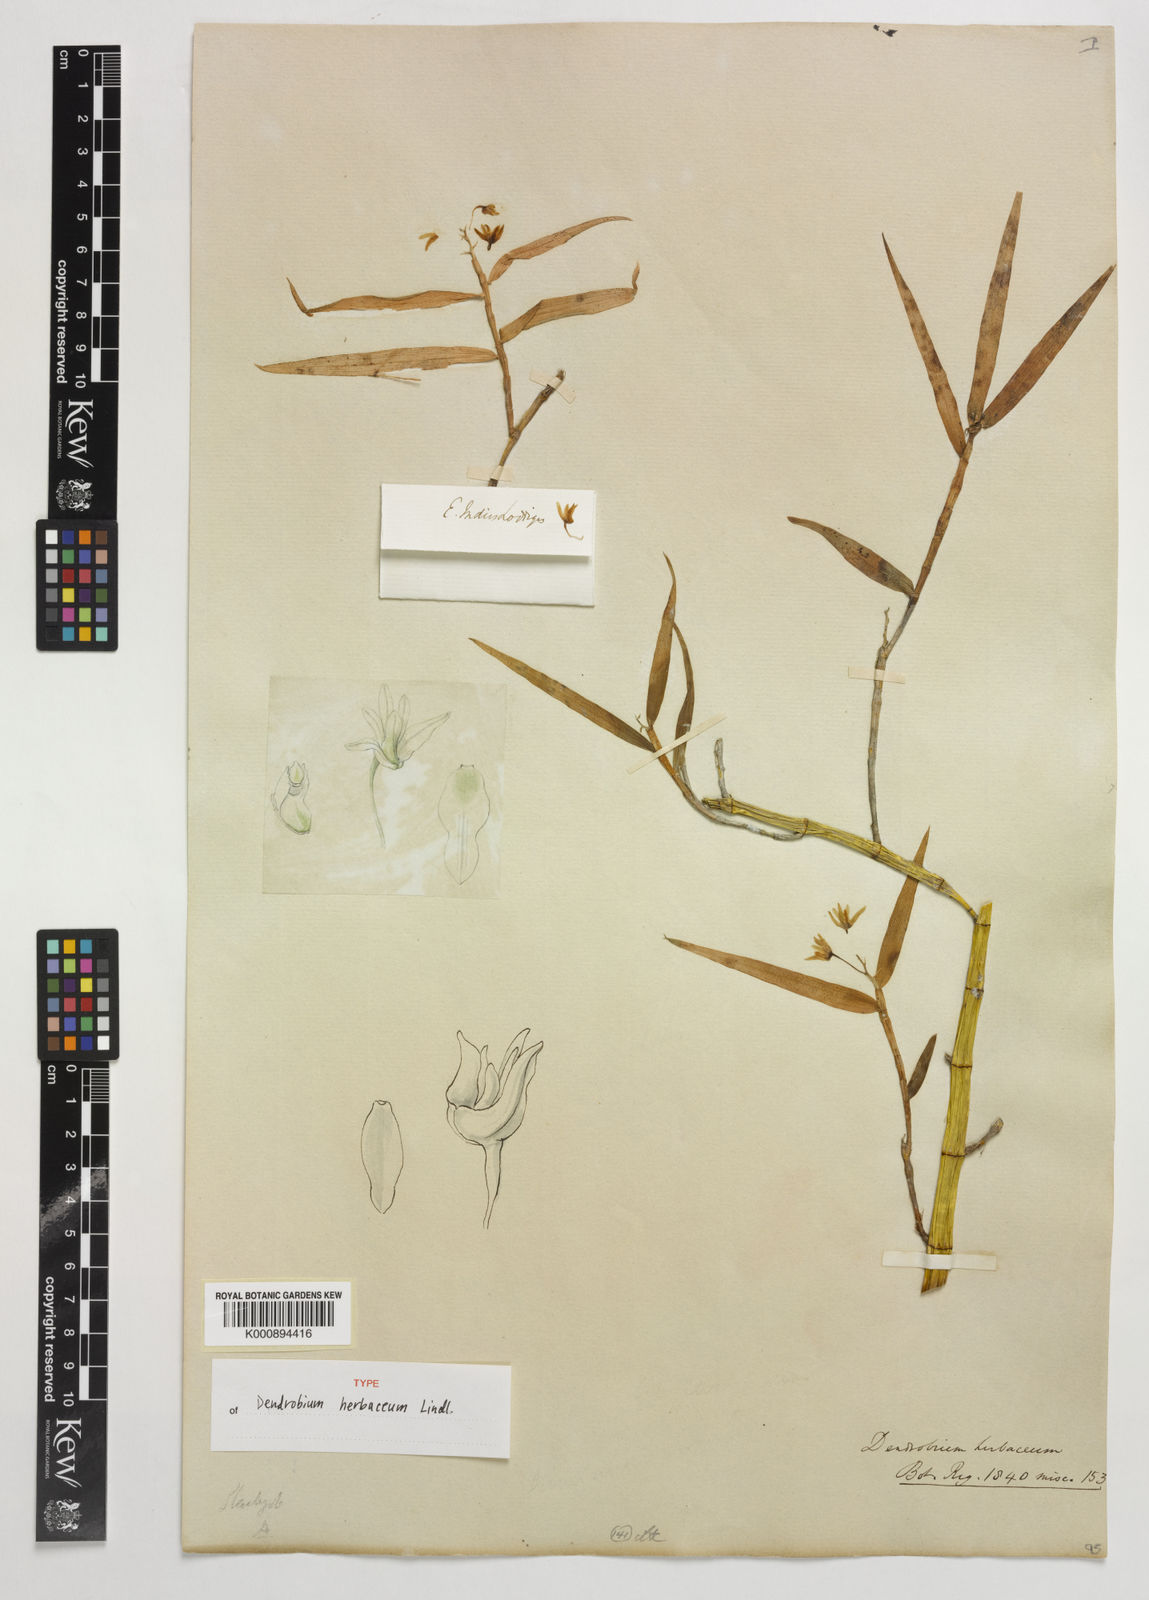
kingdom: Plantae
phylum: Tracheophyta
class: Liliopsida
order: Asparagales
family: Orchidaceae
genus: Dendrobium
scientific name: Dendrobium herbaceum
